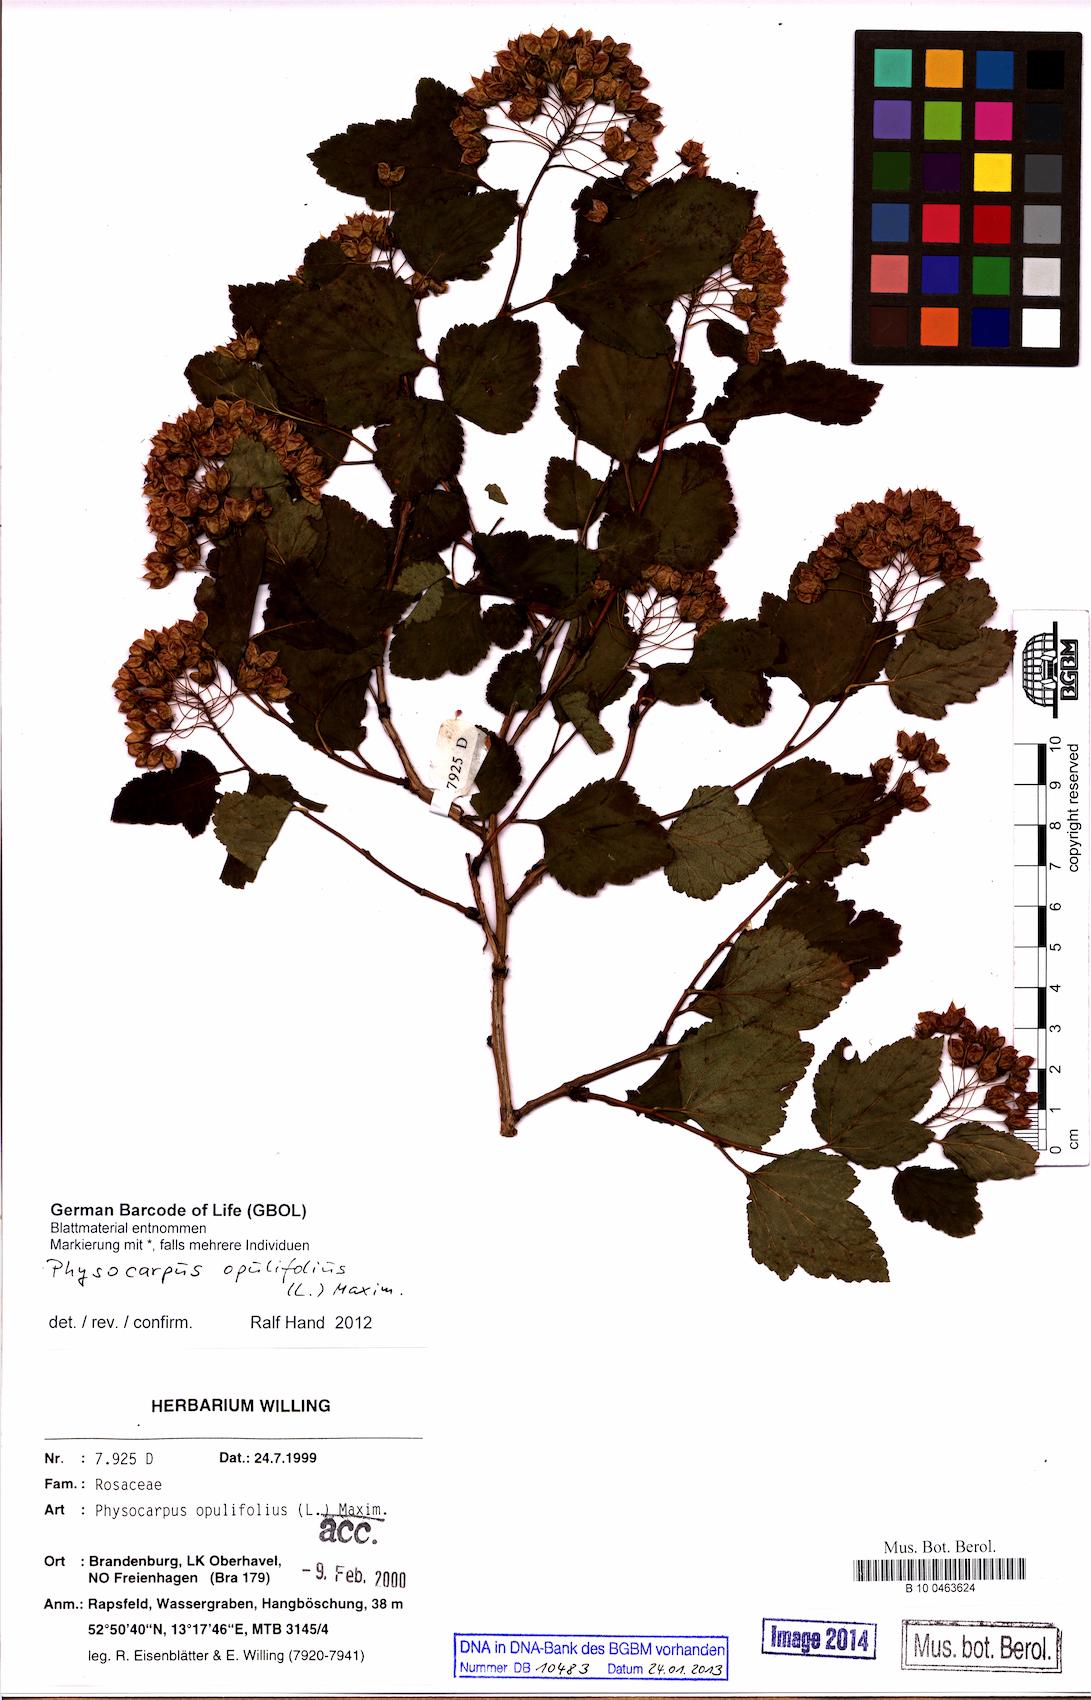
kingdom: Plantae
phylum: Tracheophyta
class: Magnoliopsida
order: Rosales
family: Rosaceae
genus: Physocarpus
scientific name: Physocarpus opulifolius
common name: Ninebark
